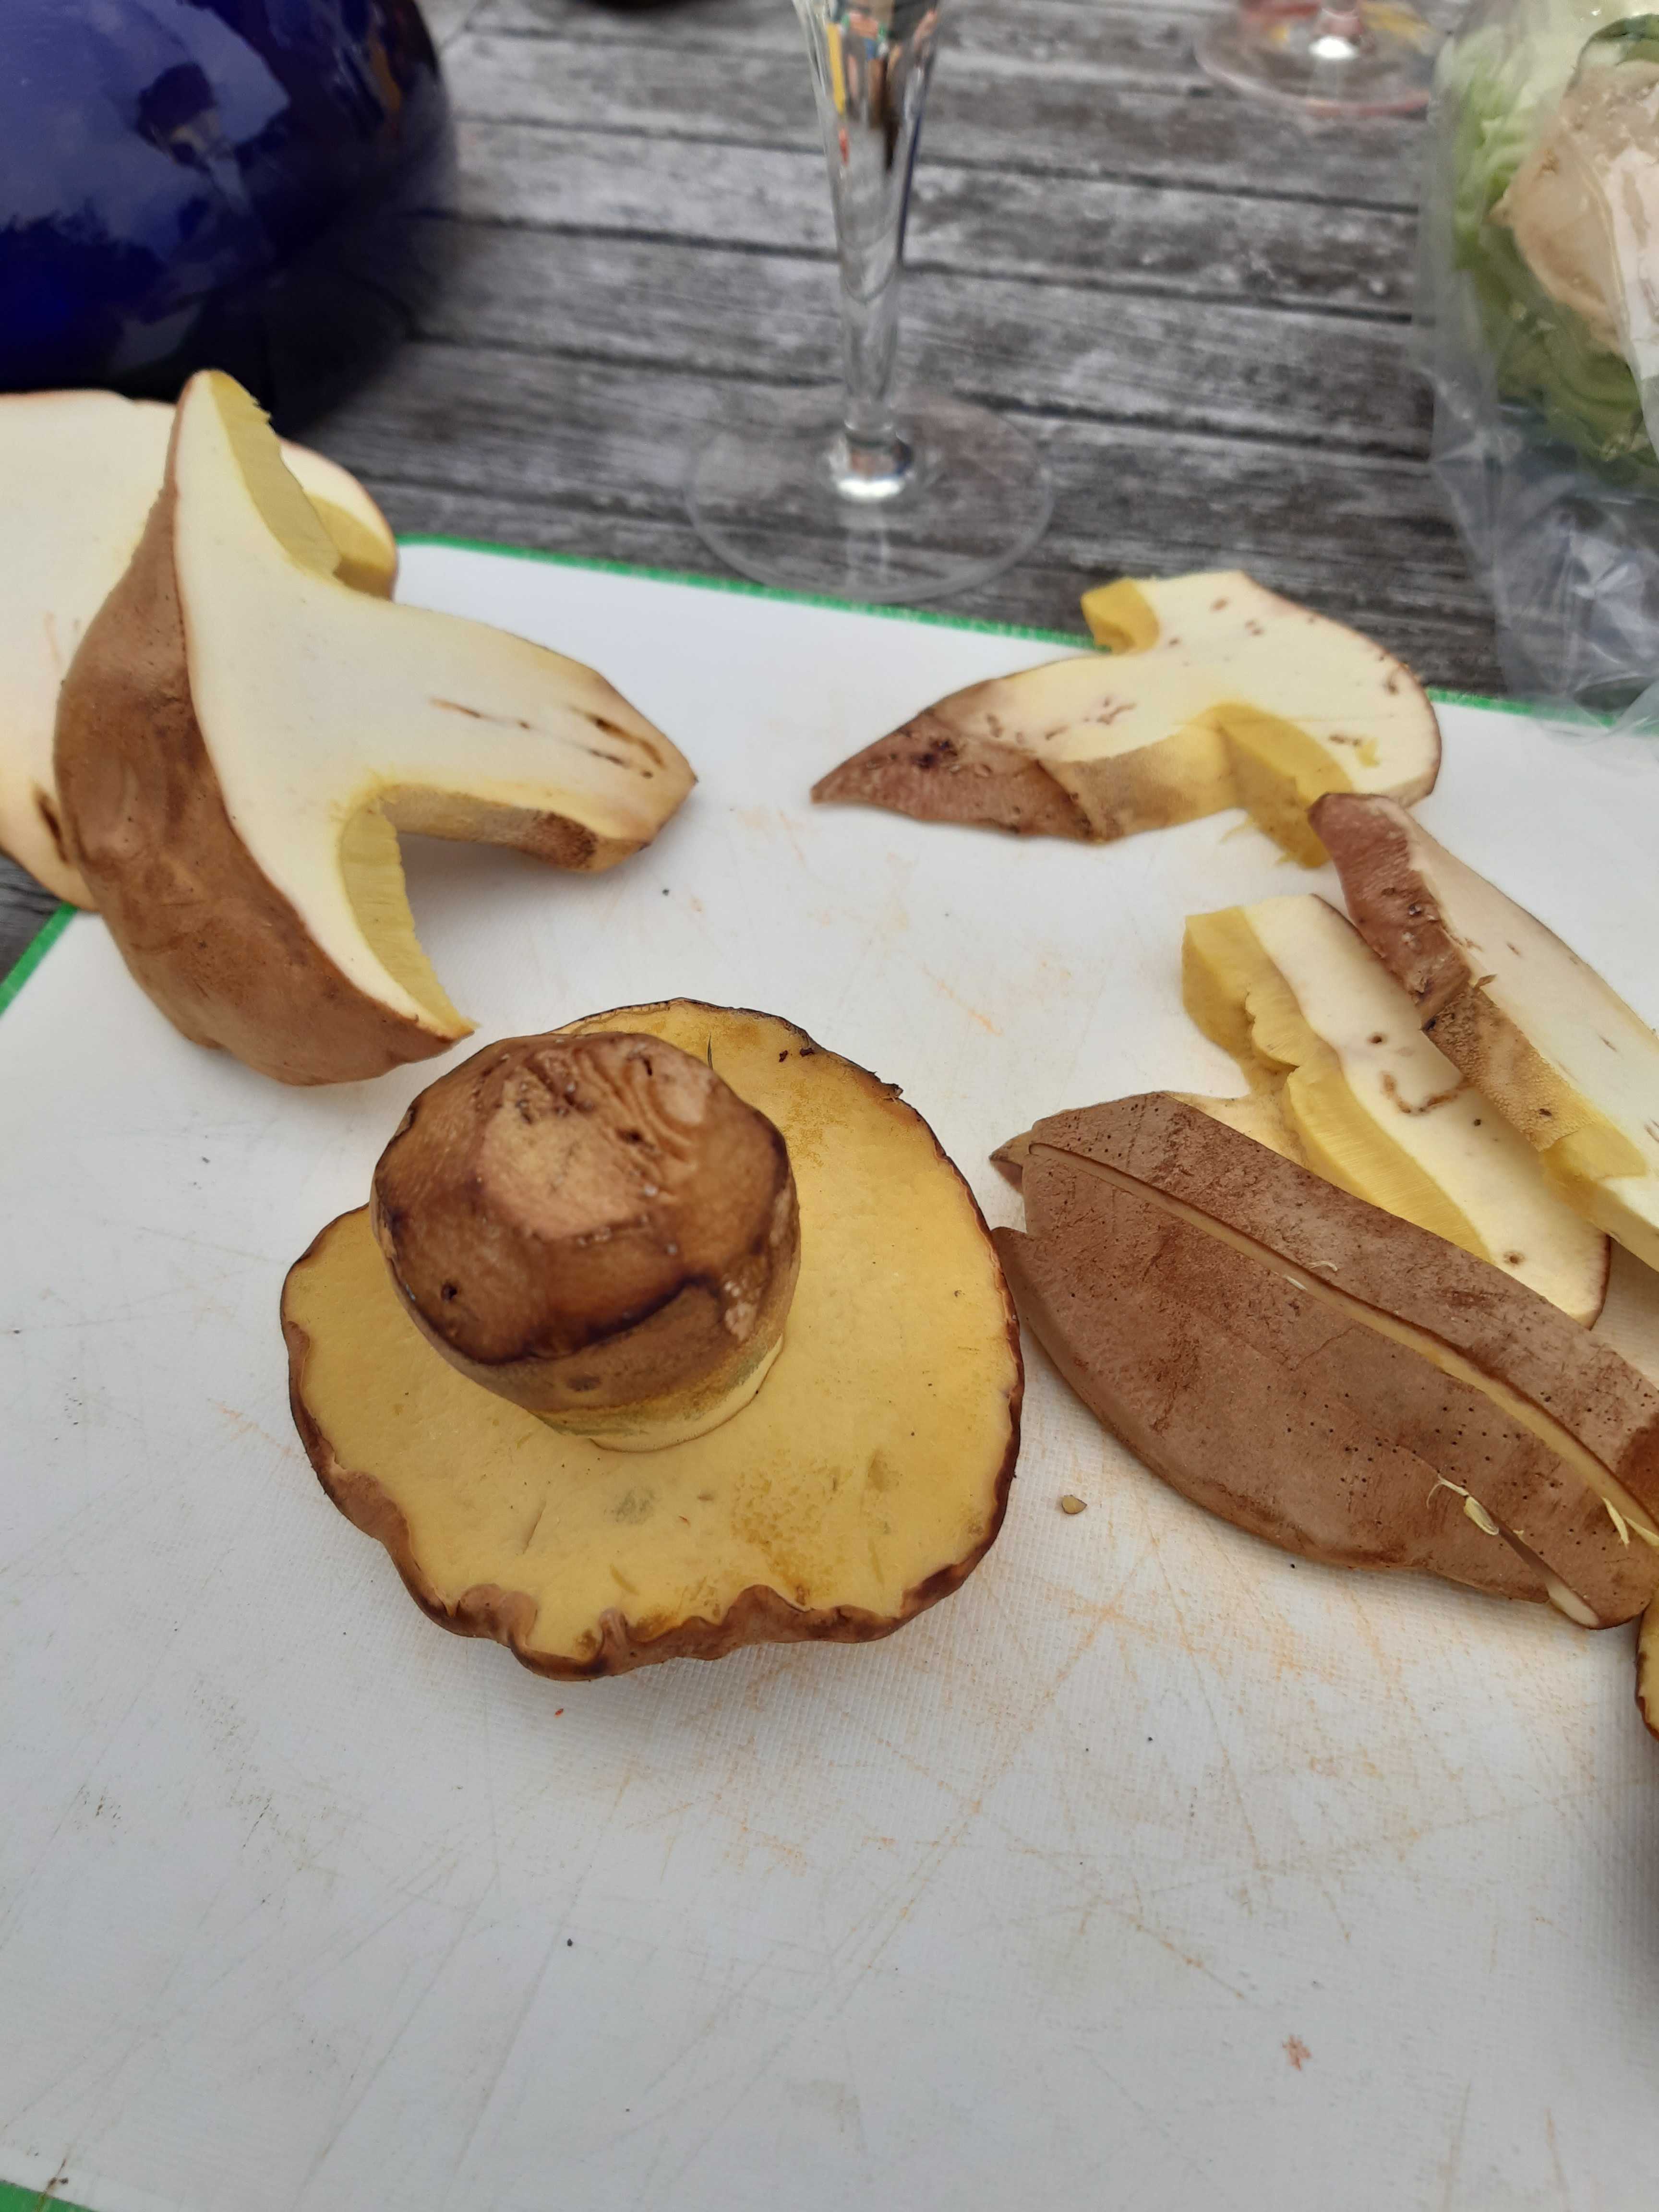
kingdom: Fungi
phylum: Basidiomycota
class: Agaricomycetes
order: Boletales
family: Boletaceae
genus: Butyriboletus
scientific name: Butyriboletus appendiculatus
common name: tenstokket rørhat
